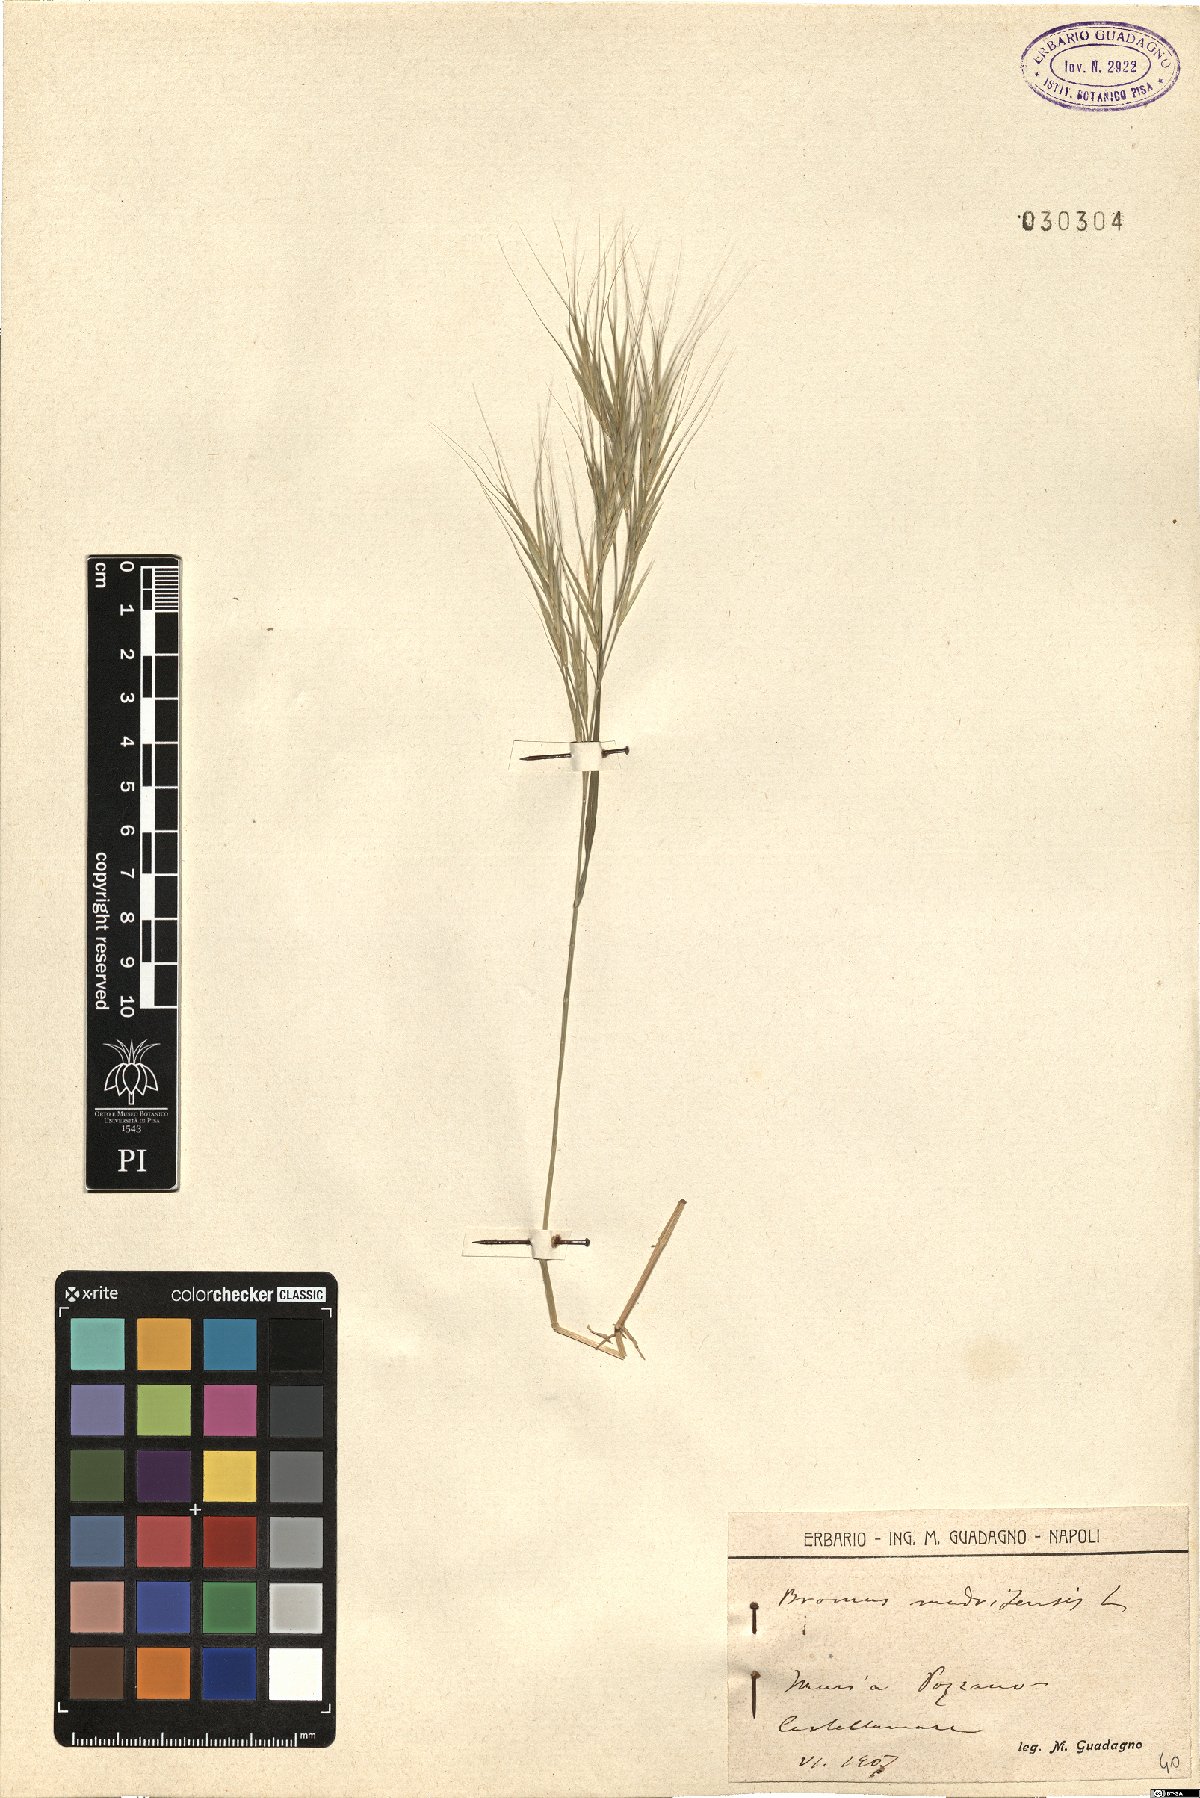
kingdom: Plantae
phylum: Tracheophyta
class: Liliopsida
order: Poales
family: Poaceae
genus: Bromus
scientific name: Bromus madritensis
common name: Compact brome
